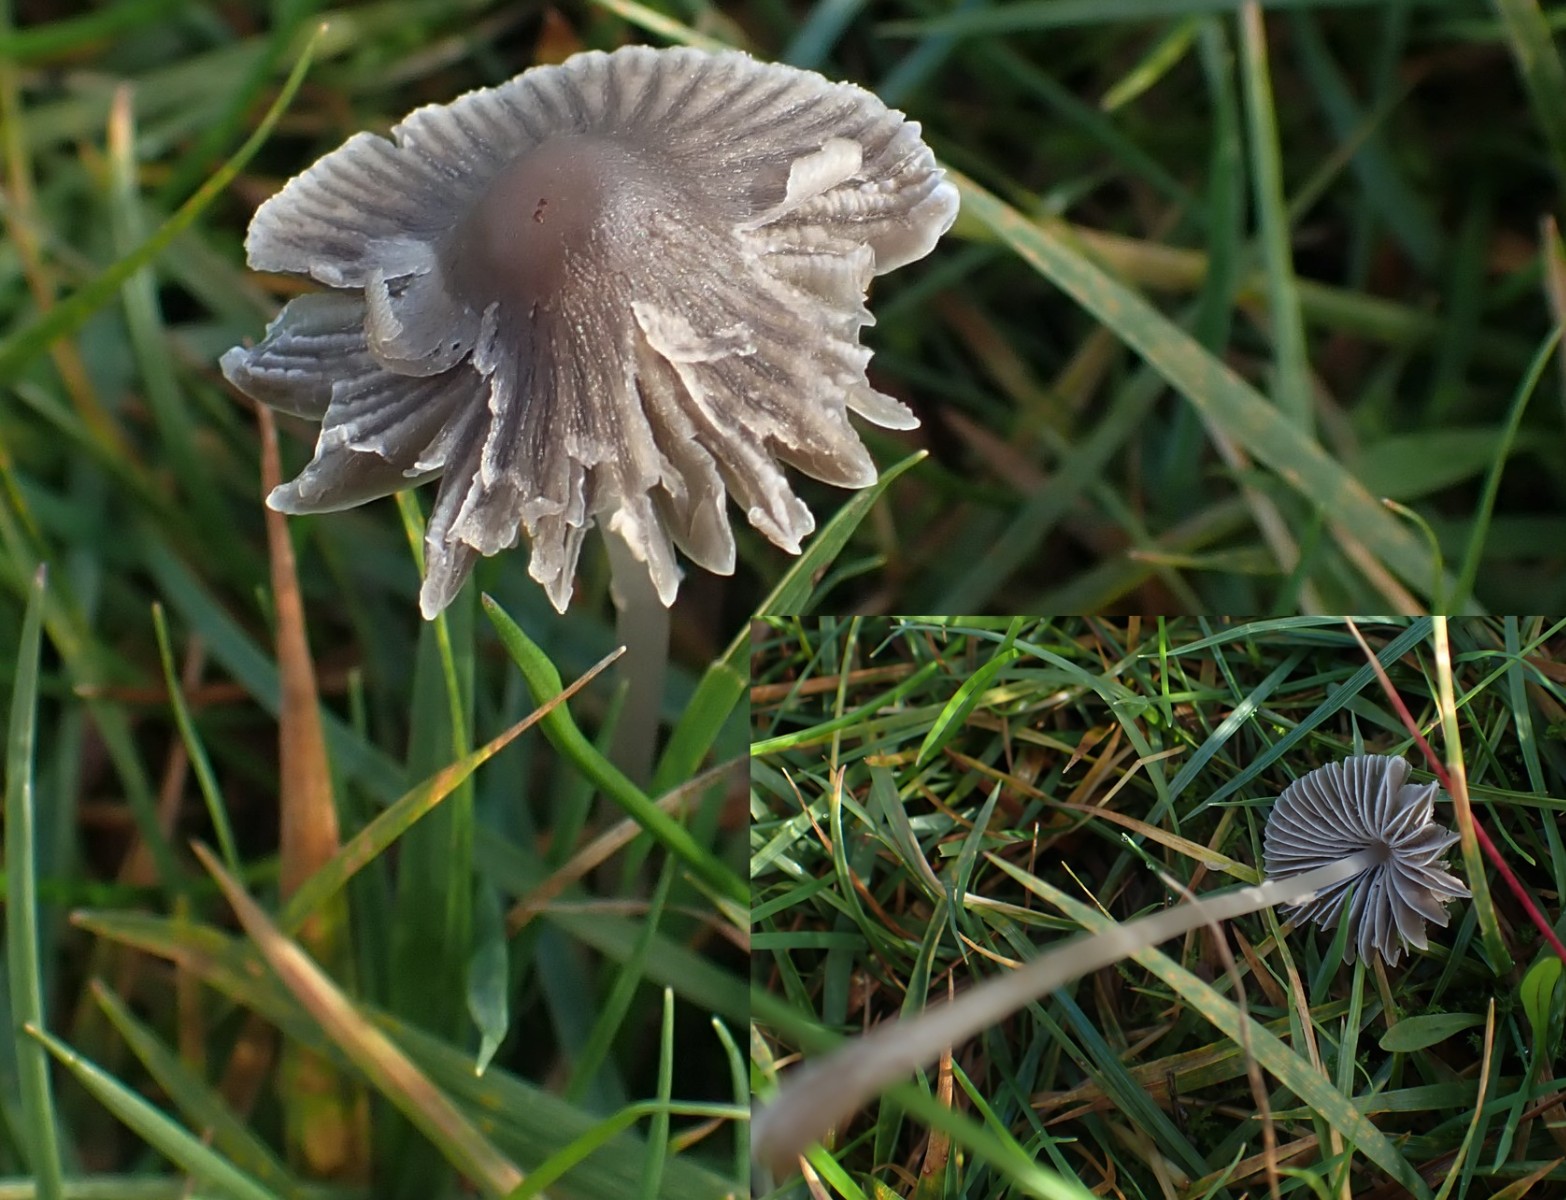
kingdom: Fungi
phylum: Basidiomycota
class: Agaricomycetes
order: Agaricales
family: Mycenaceae
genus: Mycena
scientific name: Mycena aetites
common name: plæne-huesvamp
